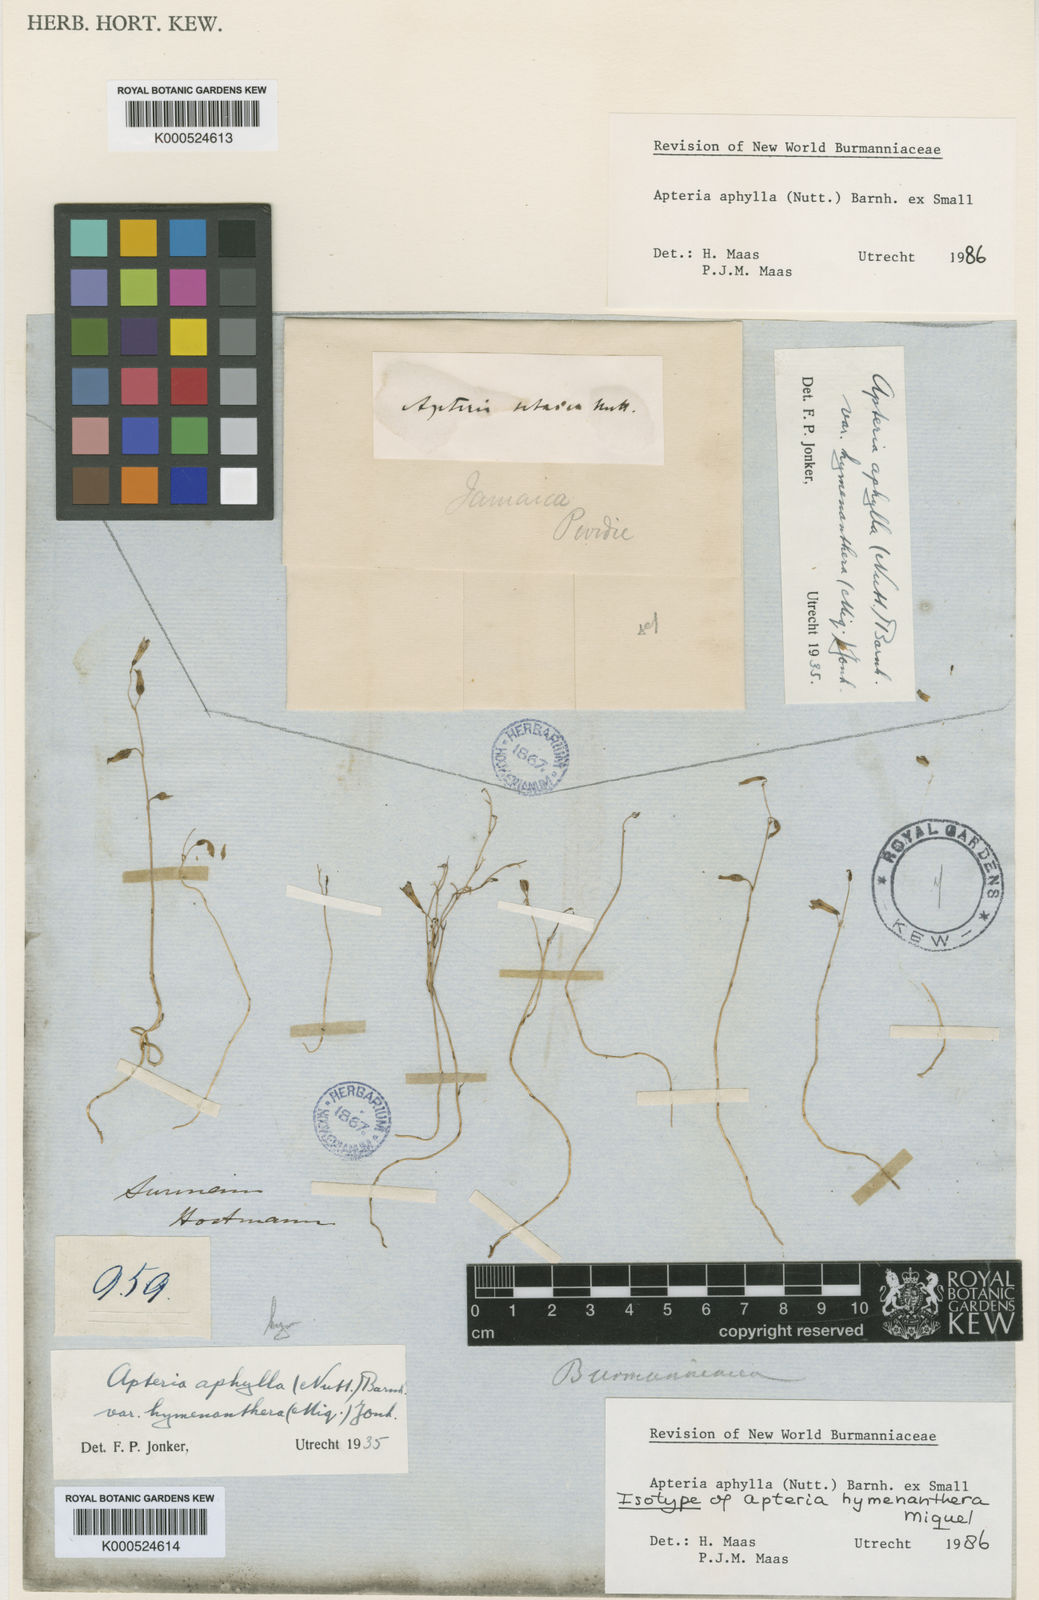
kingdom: Plantae
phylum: Tracheophyta
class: Liliopsida
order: Dioscoreales
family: Burmanniaceae
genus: Apteria
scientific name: Apteria aphylla
